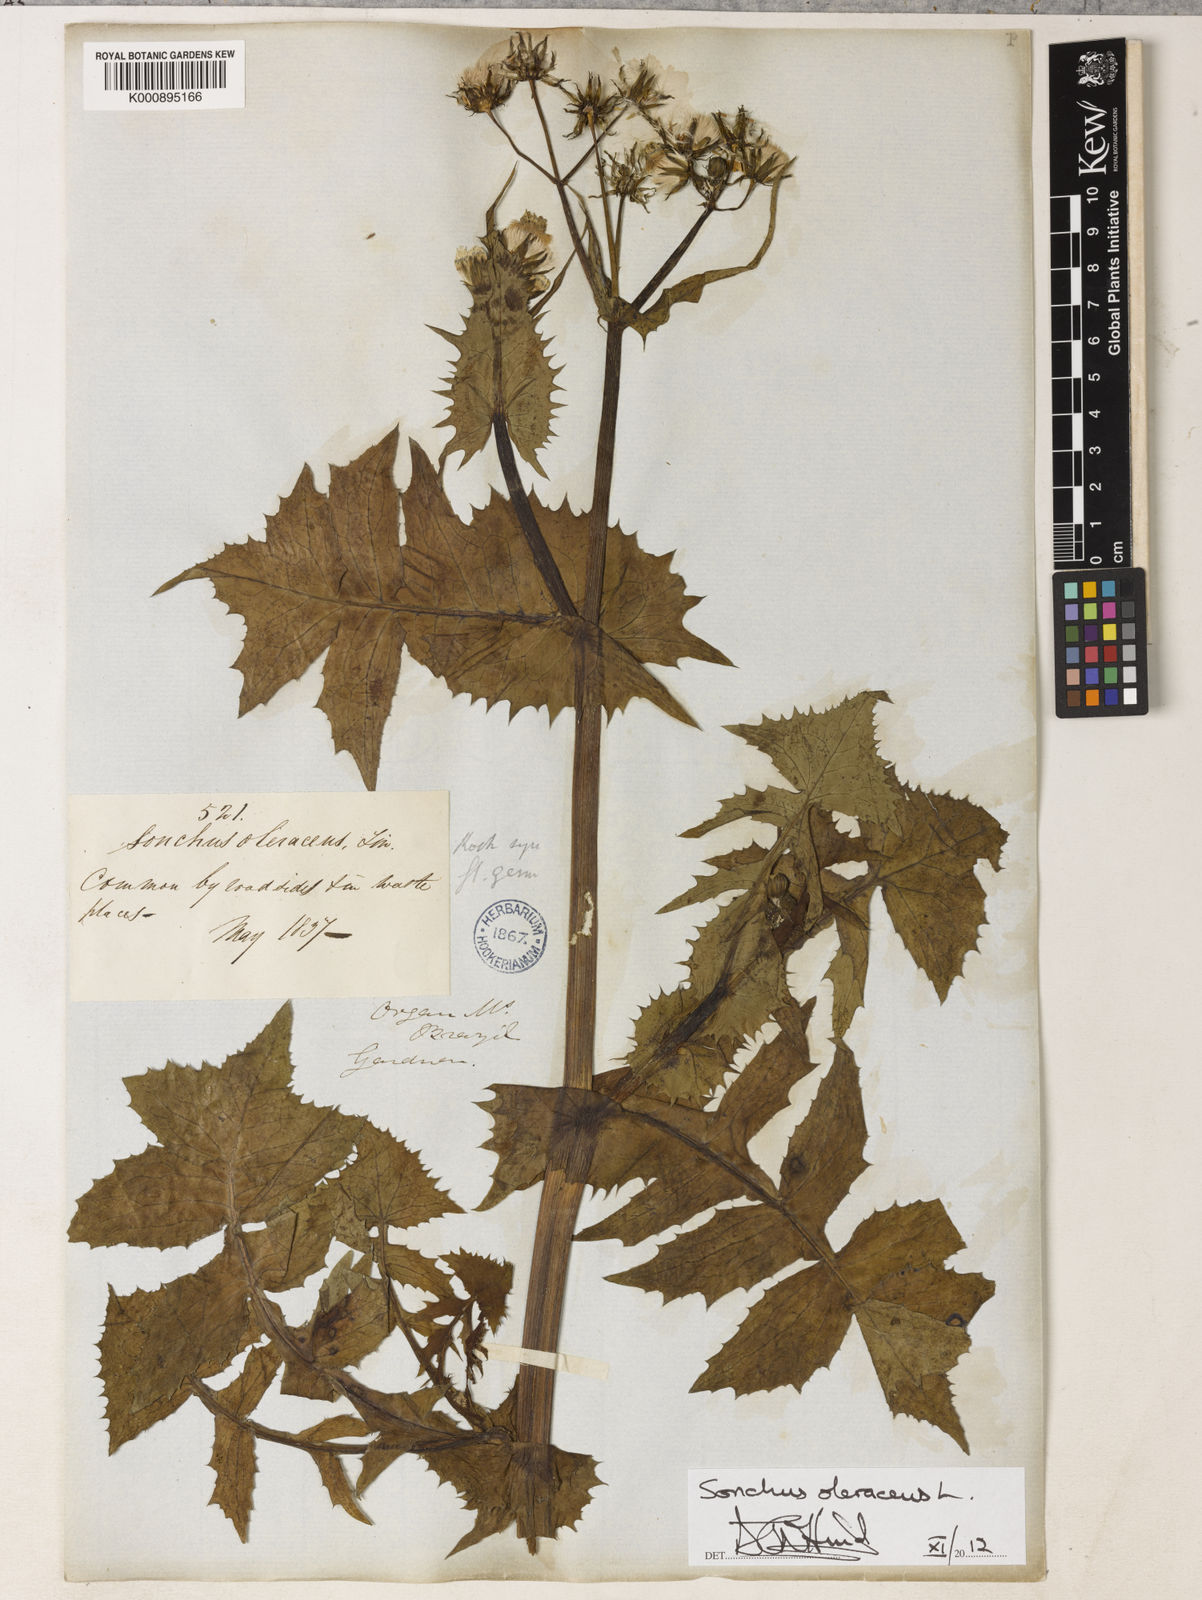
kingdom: Plantae
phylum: Tracheophyta
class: Magnoliopsida
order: Asterales
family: Asteraceae
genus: Sonchus
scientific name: Sonchus oleraceus
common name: Common sowthistle
